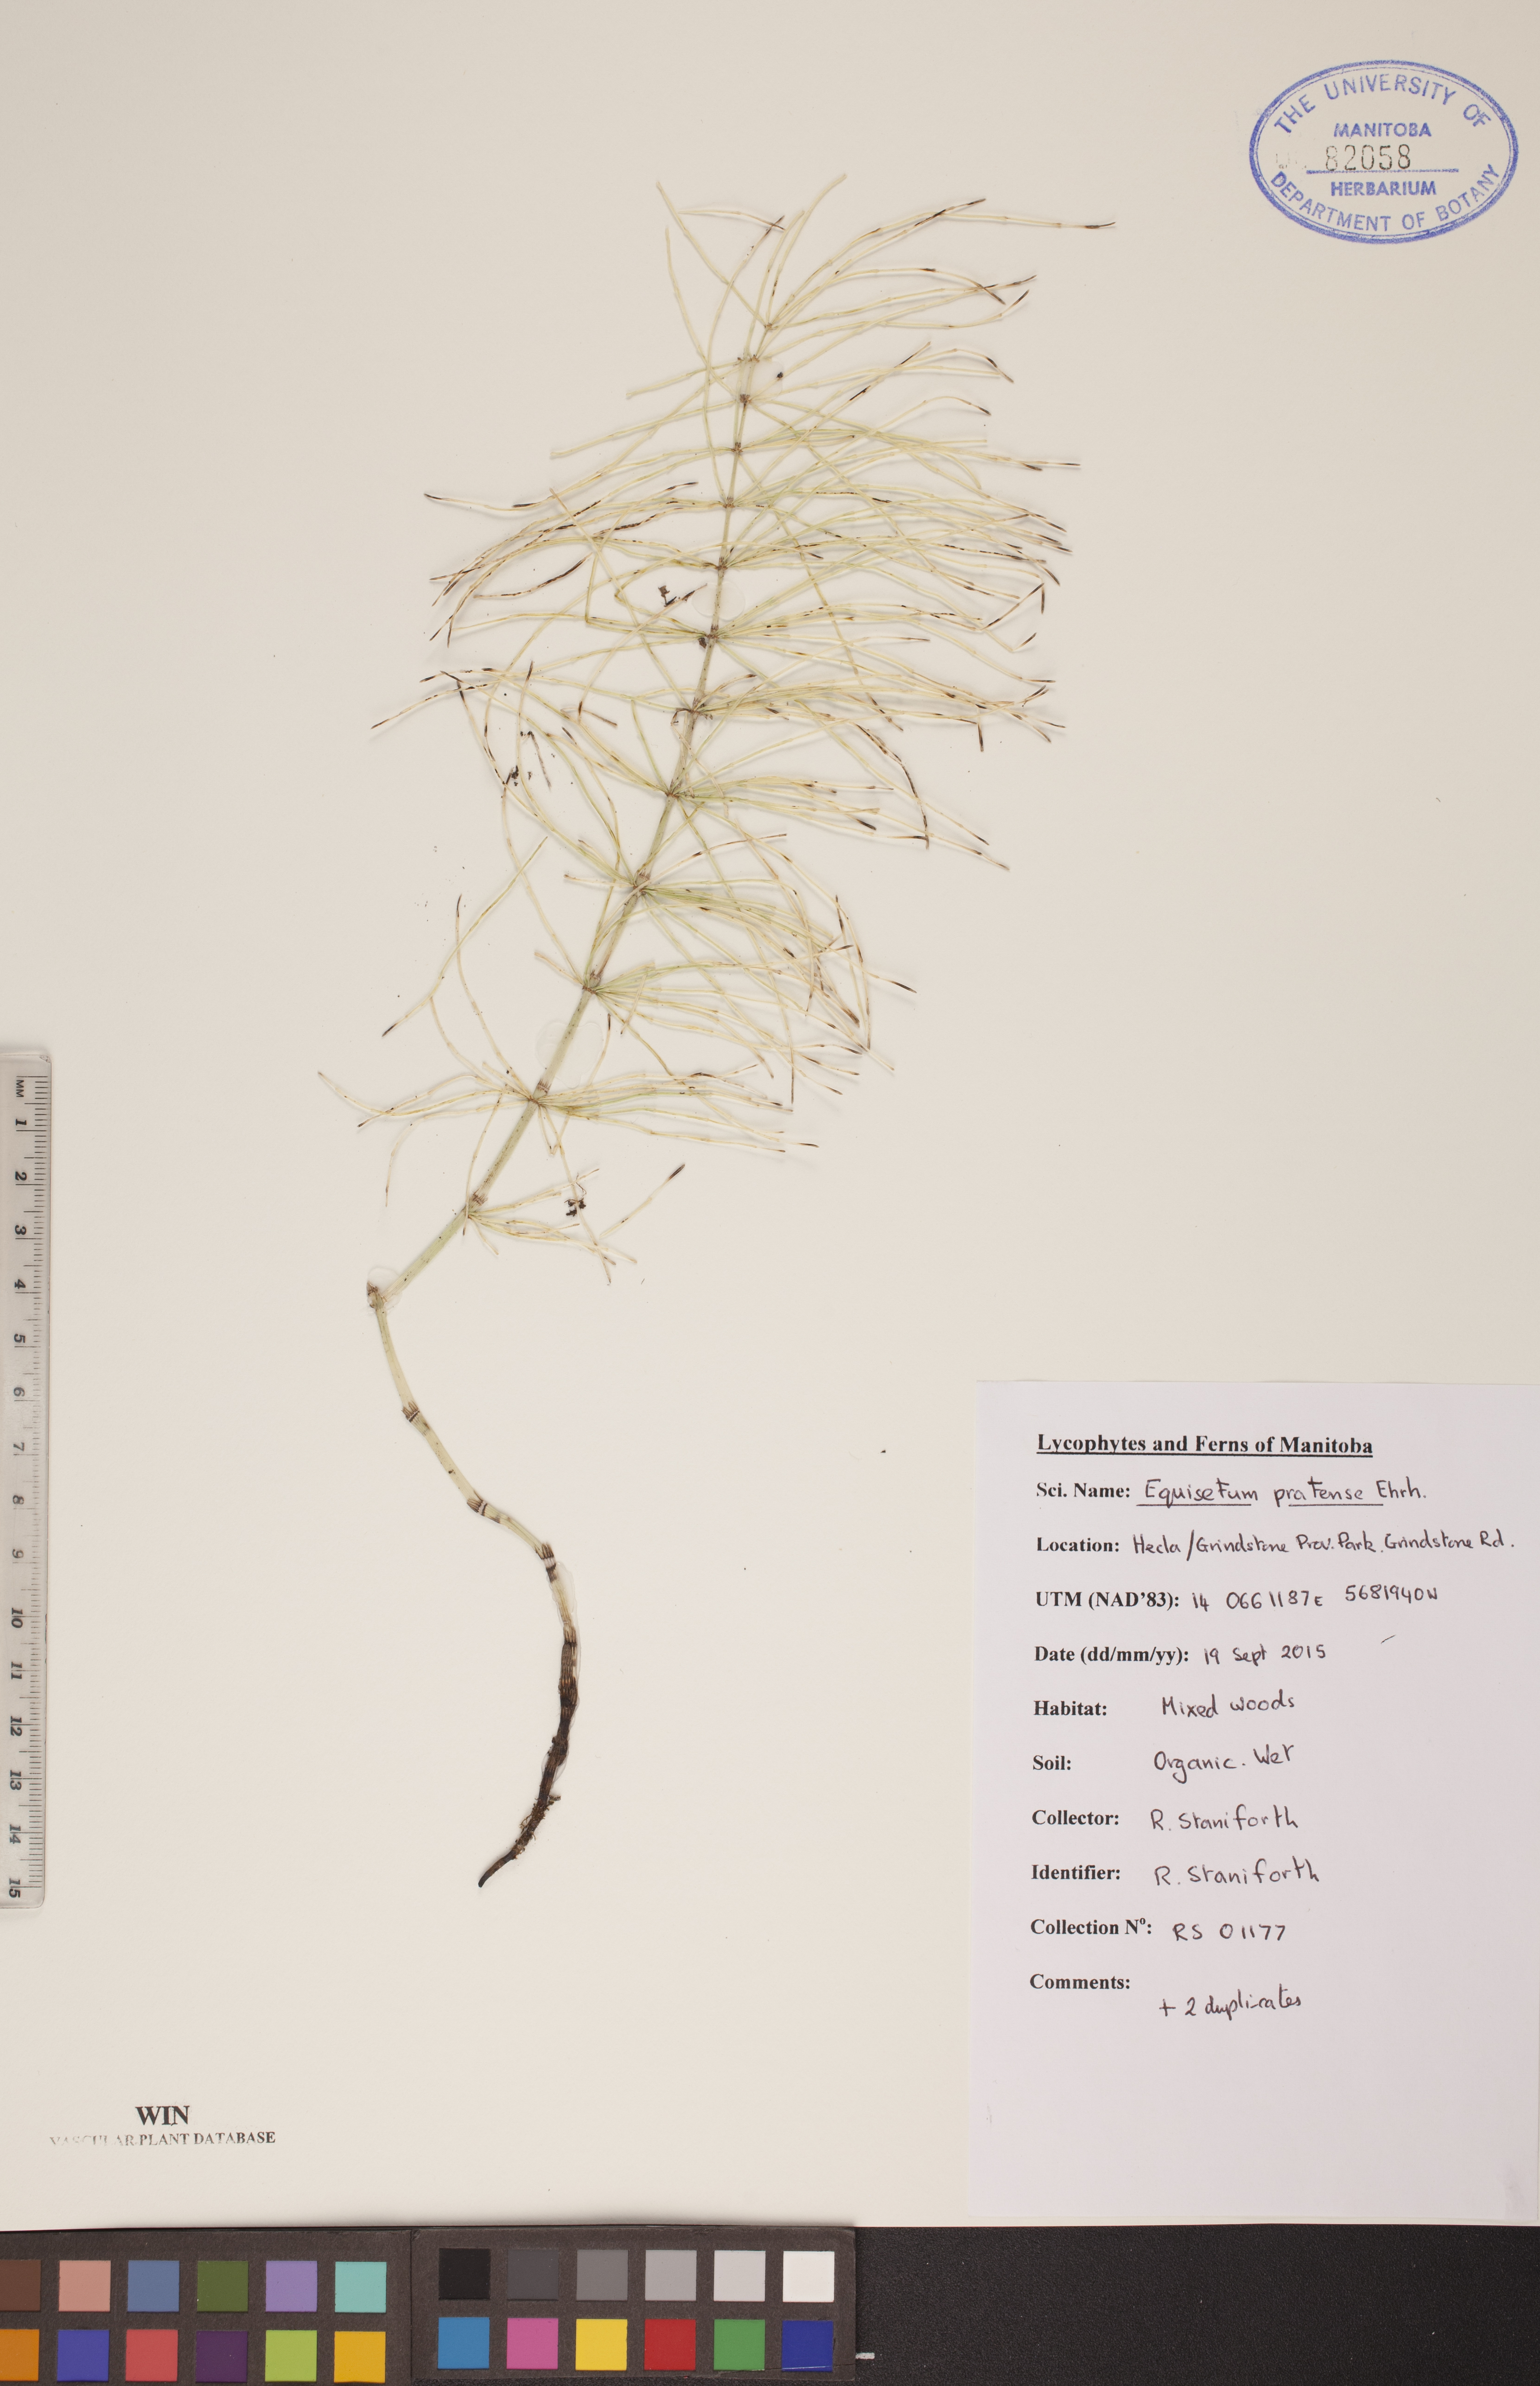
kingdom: Plantae
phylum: Tracheophyta
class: Polypodiopsida
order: Equisetales
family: Equisetaceae
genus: Equisetum
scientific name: Equisetum pratense
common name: Meadow horsetail
